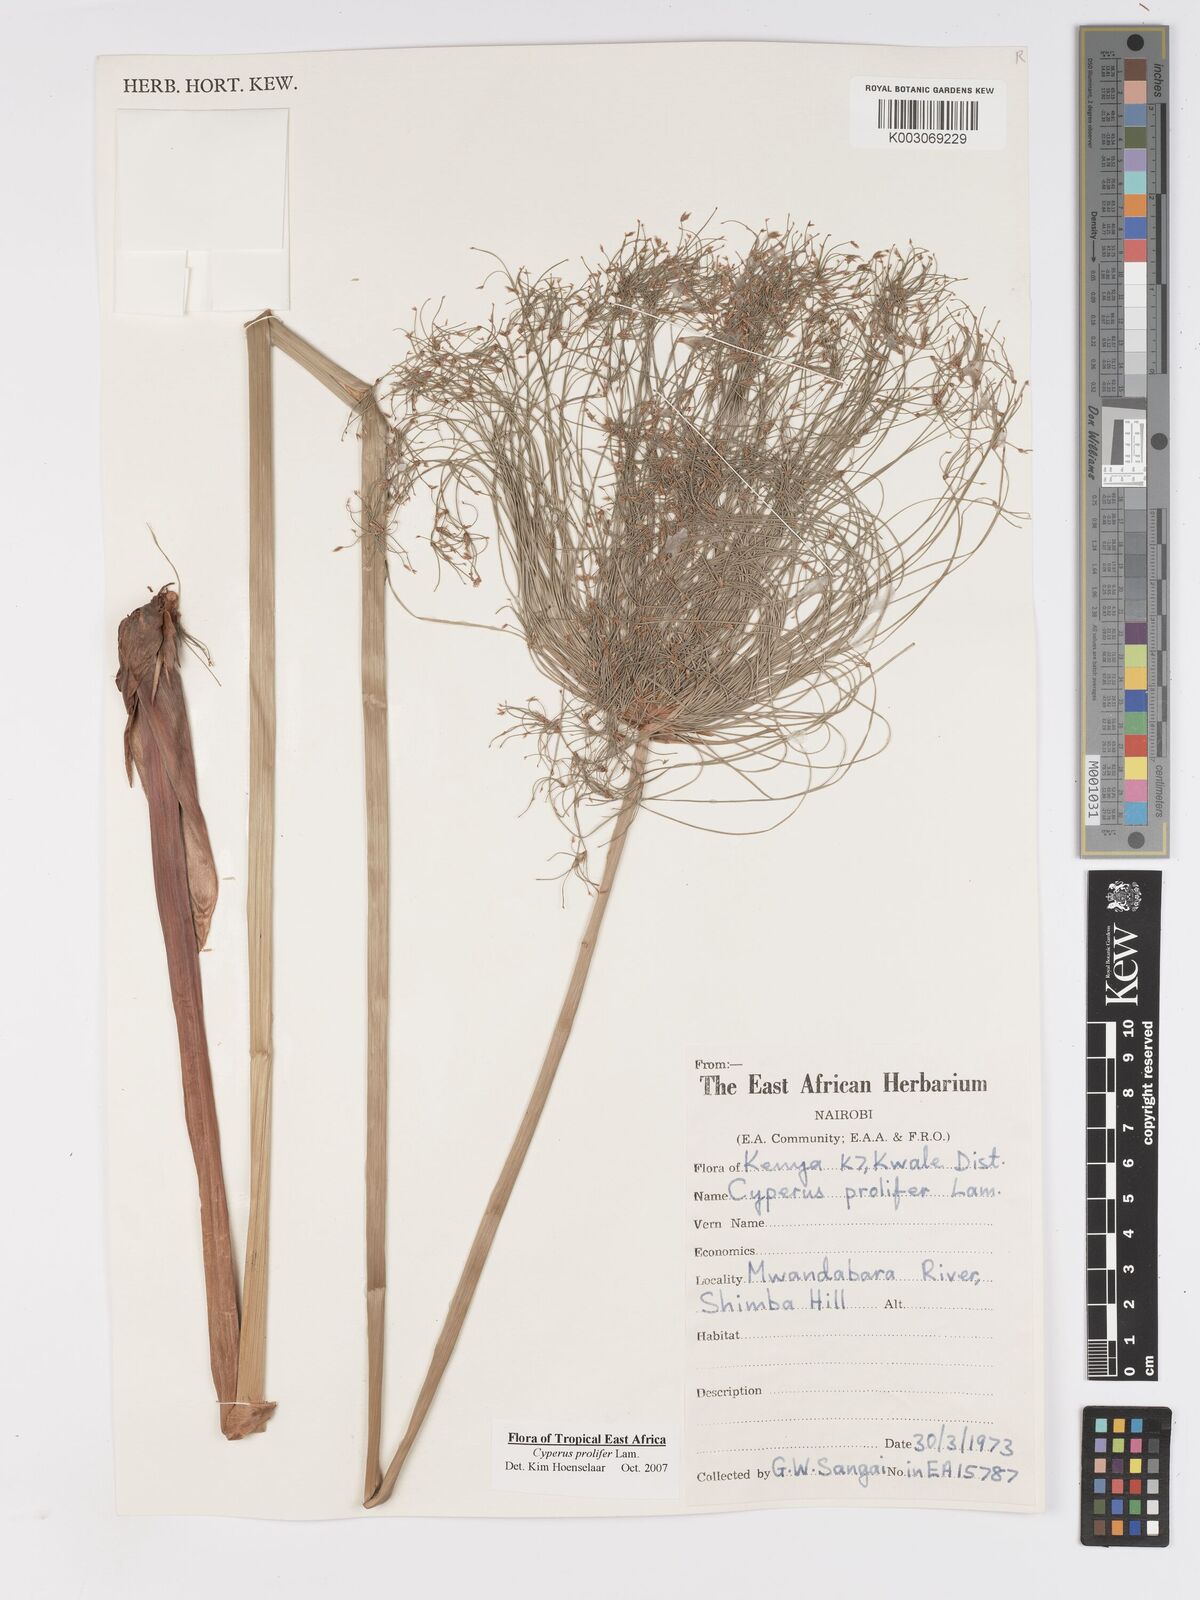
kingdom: Plantae
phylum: Tracheophyta
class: Liliopsida
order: Poales
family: Cyperaceae
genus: Cyperus
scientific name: Cyperus prolifer
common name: Miniature flatsedge
